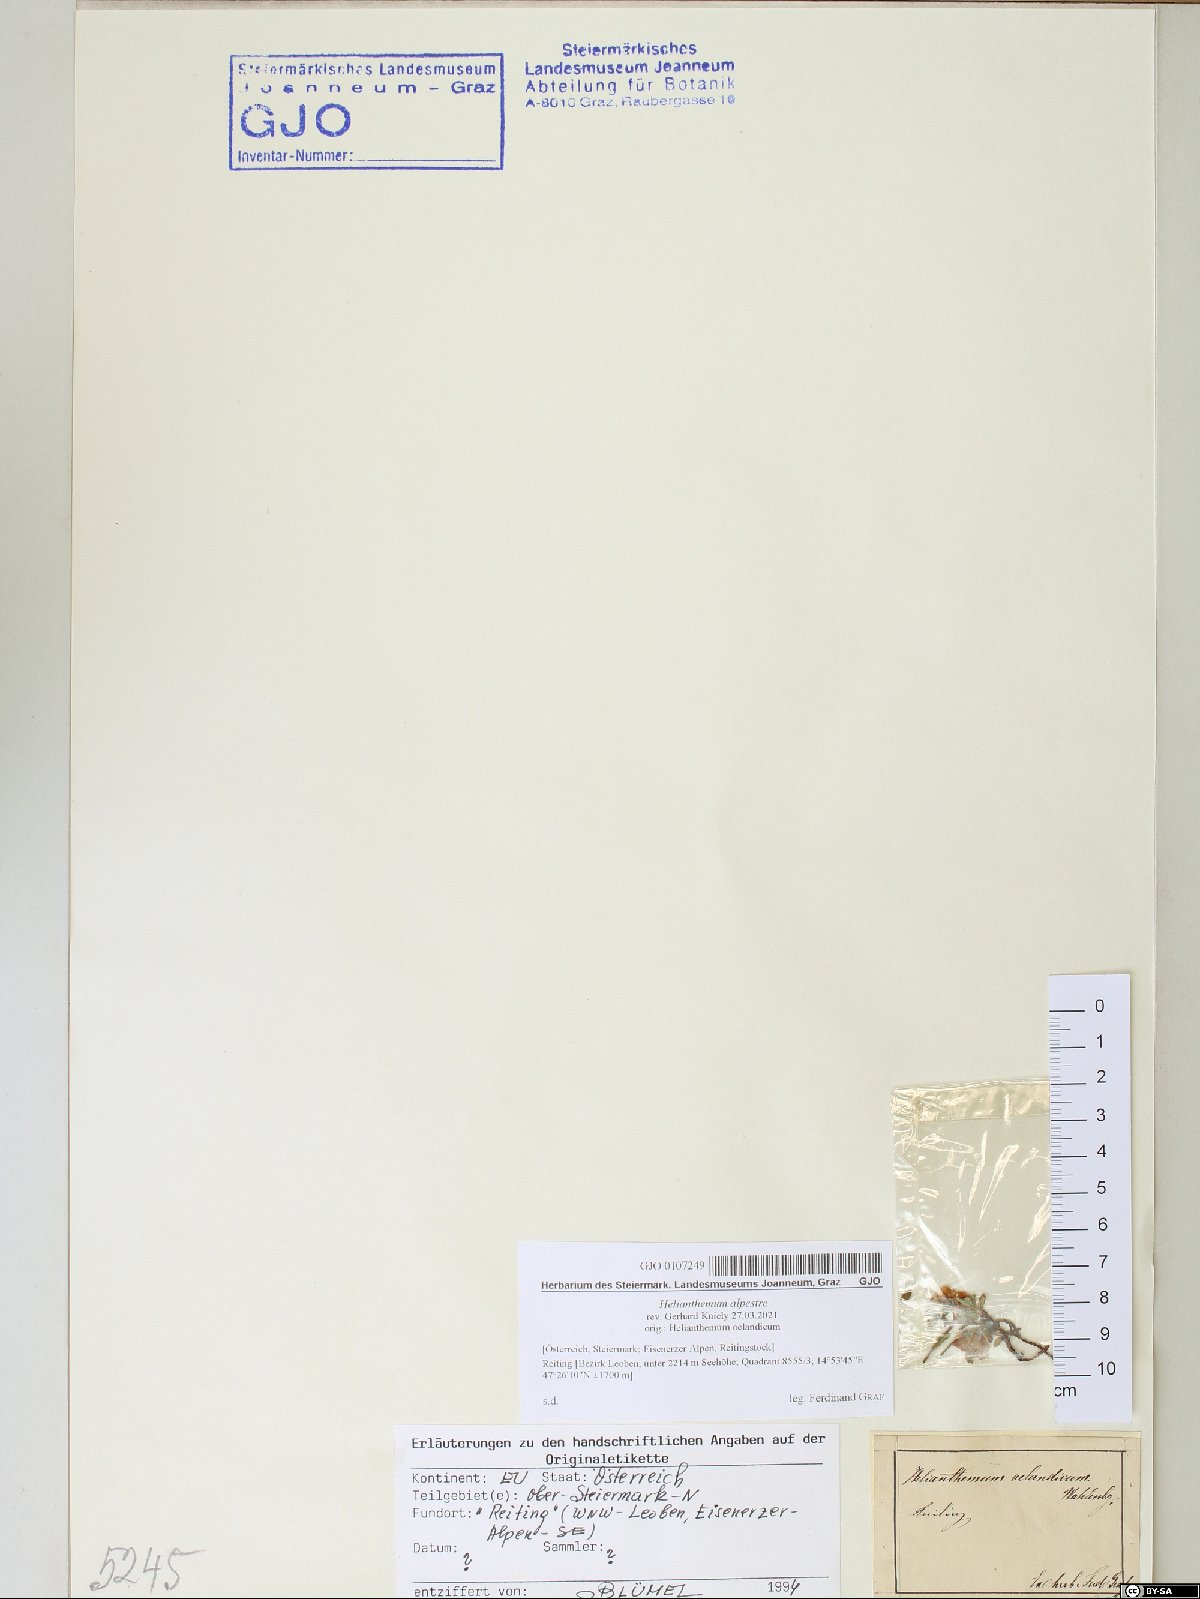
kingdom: Plantae
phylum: Tracheophyta
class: Magnoliopsida
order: Malvales
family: Cistaceae
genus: Helianthemum
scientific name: Helianthemum alpestre
